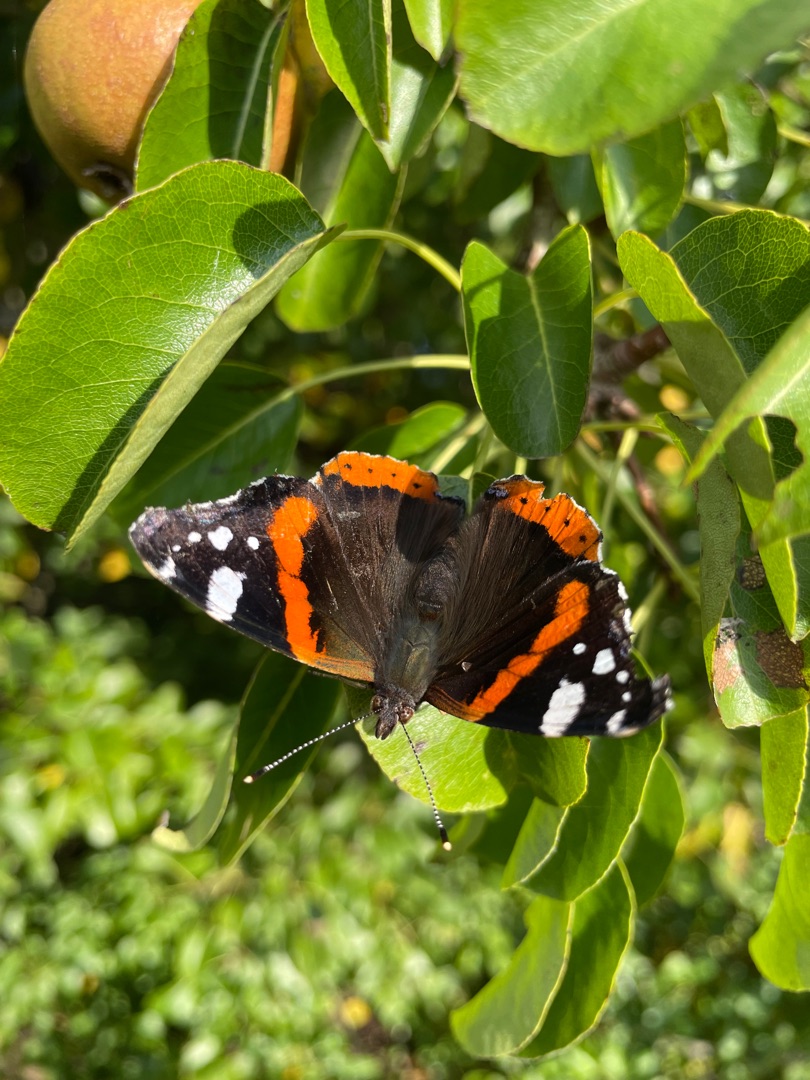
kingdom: Animalia
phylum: Arthropoda
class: Insecta
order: Lepidoptera
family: Nymphalidae
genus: Vanessa
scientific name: Vanessa atalanta
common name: Admiral
